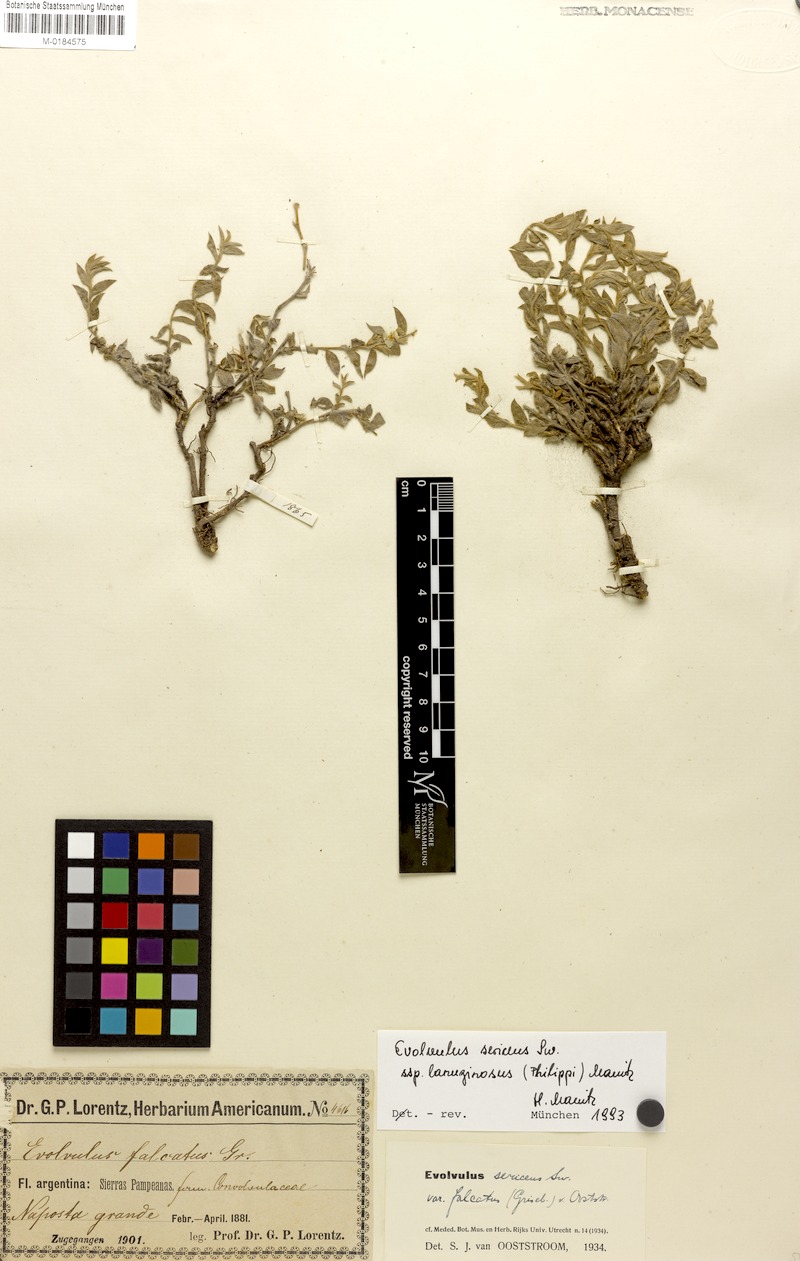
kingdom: Plantae
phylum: Tracheophyta
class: Magnoliopsida
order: Solanales
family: Convolvulaceae
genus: Evolvulus
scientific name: Evolvulus sericeus
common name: Blue dots
